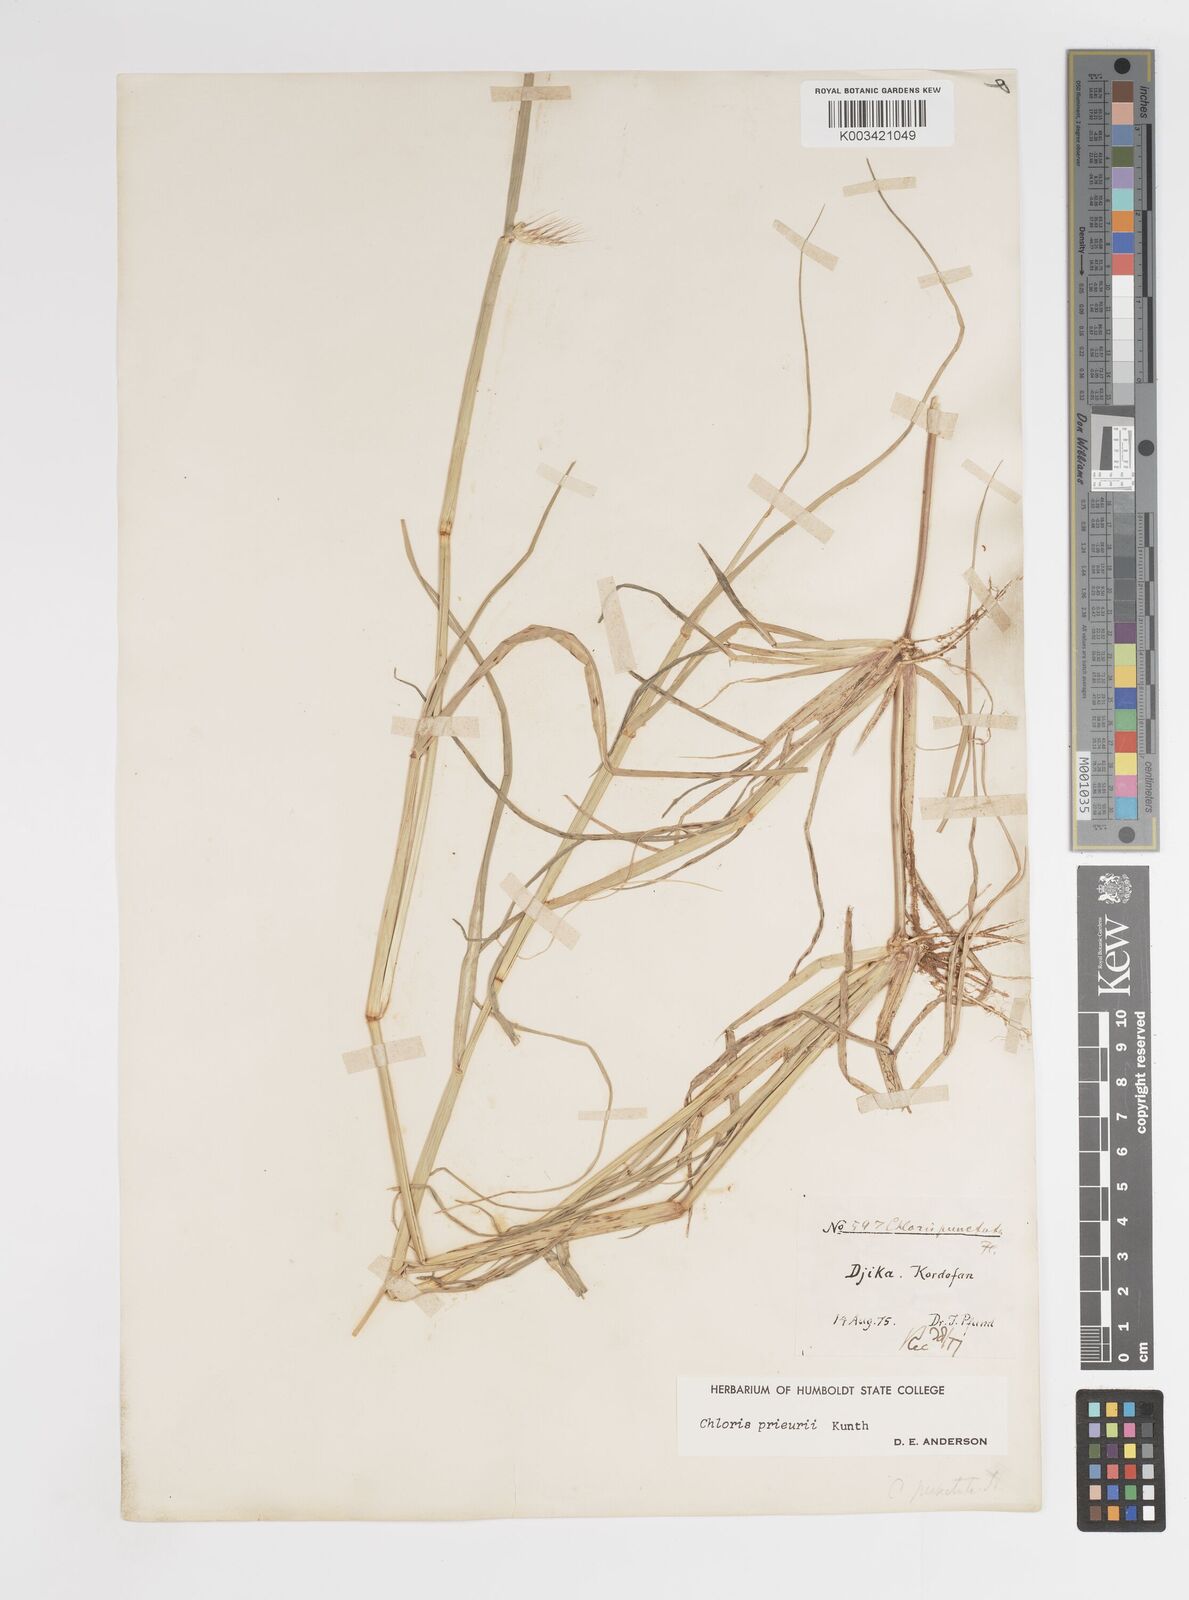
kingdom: Plantae
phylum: Tracheophyta
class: Liliopsida
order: Poales
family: Poaceae
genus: Enteropogon
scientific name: Enteropogon prieurii
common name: Prieur's umbrellagrass
